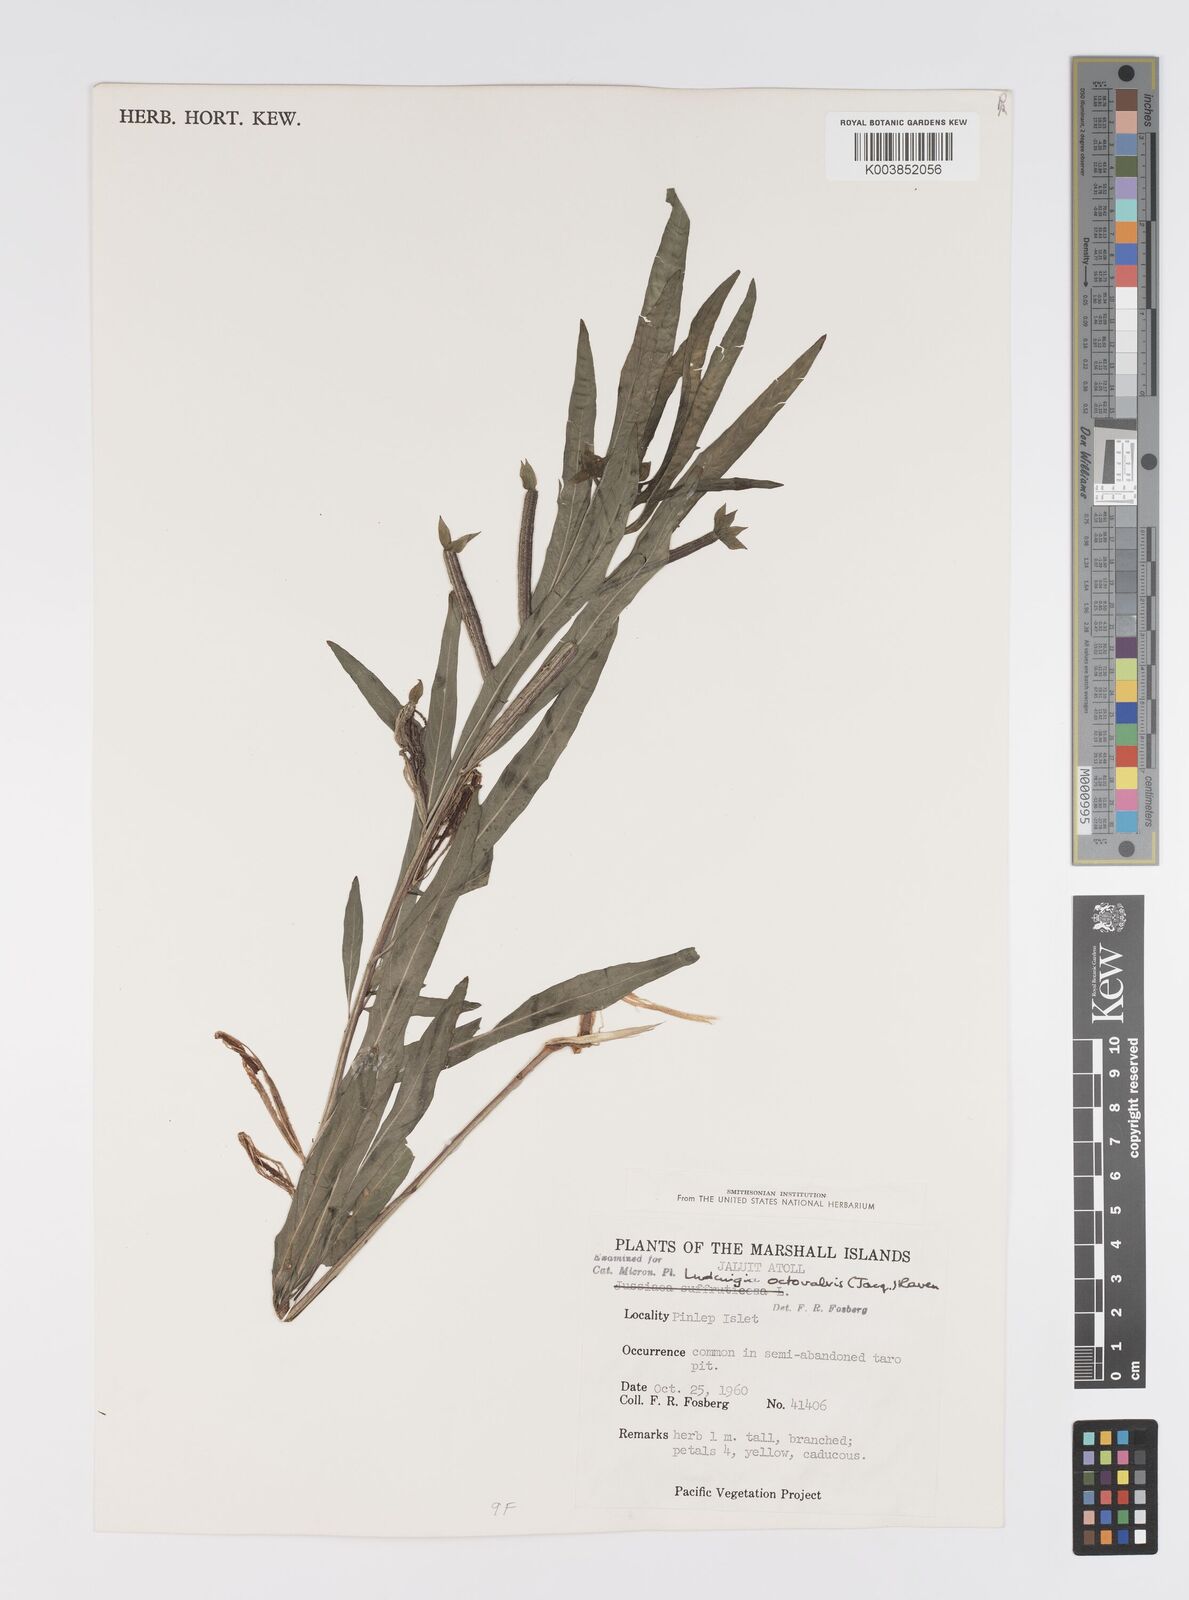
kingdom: Plantae
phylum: Tracheophyta
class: Magnoliopsida
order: Myrtales
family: Onagraceae
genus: Ludwigia
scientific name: Ludwigia octovalvis
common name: Water-primrose
